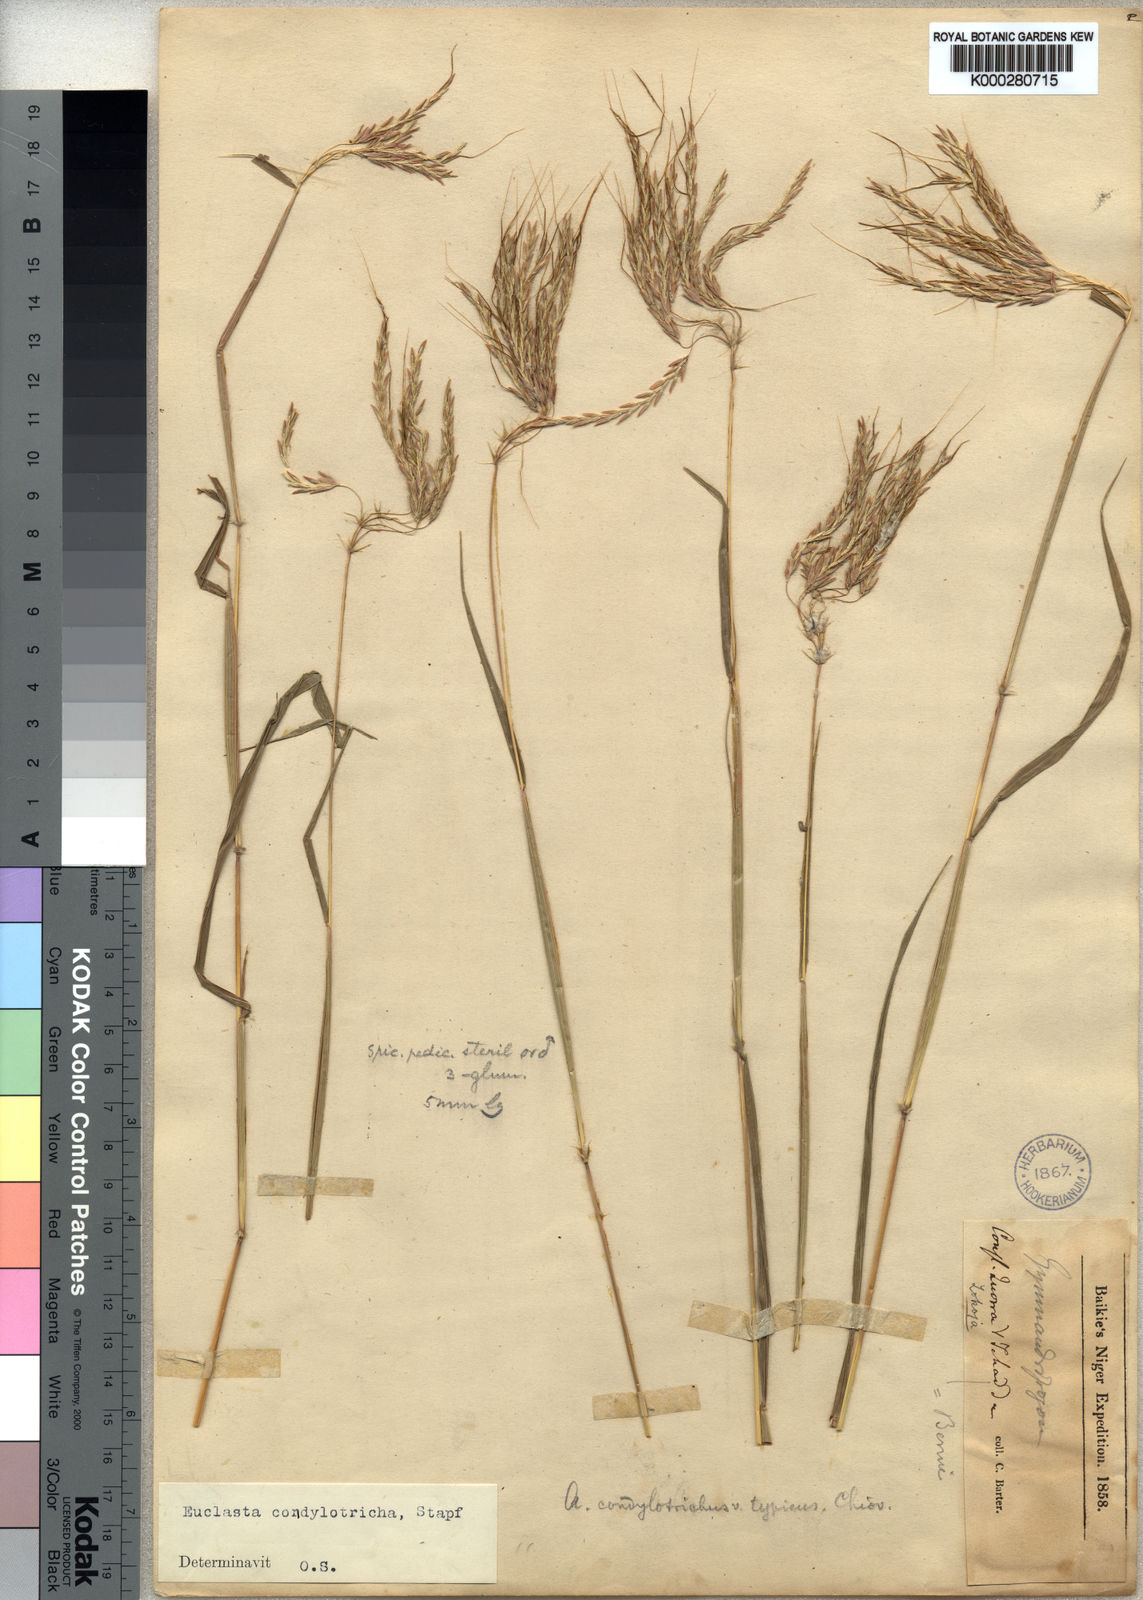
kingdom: Plantae
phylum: Tracheophyta
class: Liliopsida
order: Poales
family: Poaceae
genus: Euclasta
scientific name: Euclasta condylotricha
